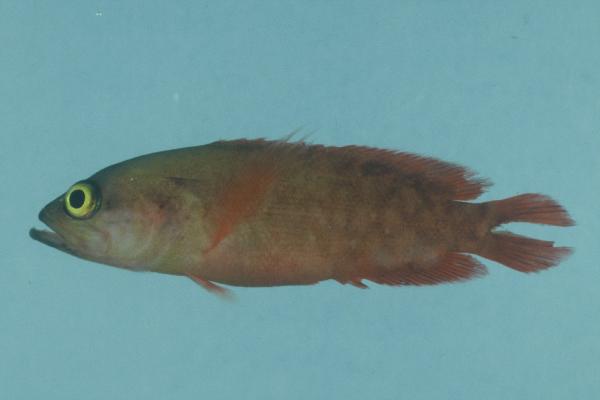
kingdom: Animalia
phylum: Chordata
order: Perciformes
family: Serranidae
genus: Pseudogramma
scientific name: Pseudogramma polyacantha
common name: Bold-spot soapfish
